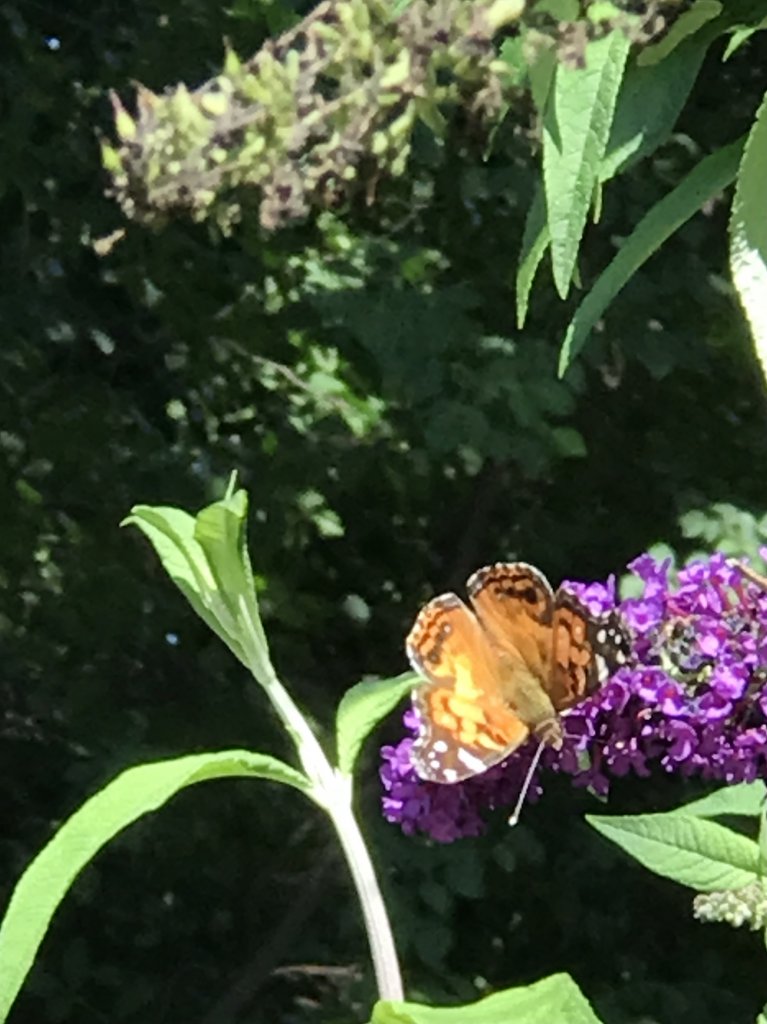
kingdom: Animalia
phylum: Arthropoda
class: Insecta
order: Lepidoptera
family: Nymphalidae
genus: Vanessa
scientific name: Vanessa virginiensis
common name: American Lady
